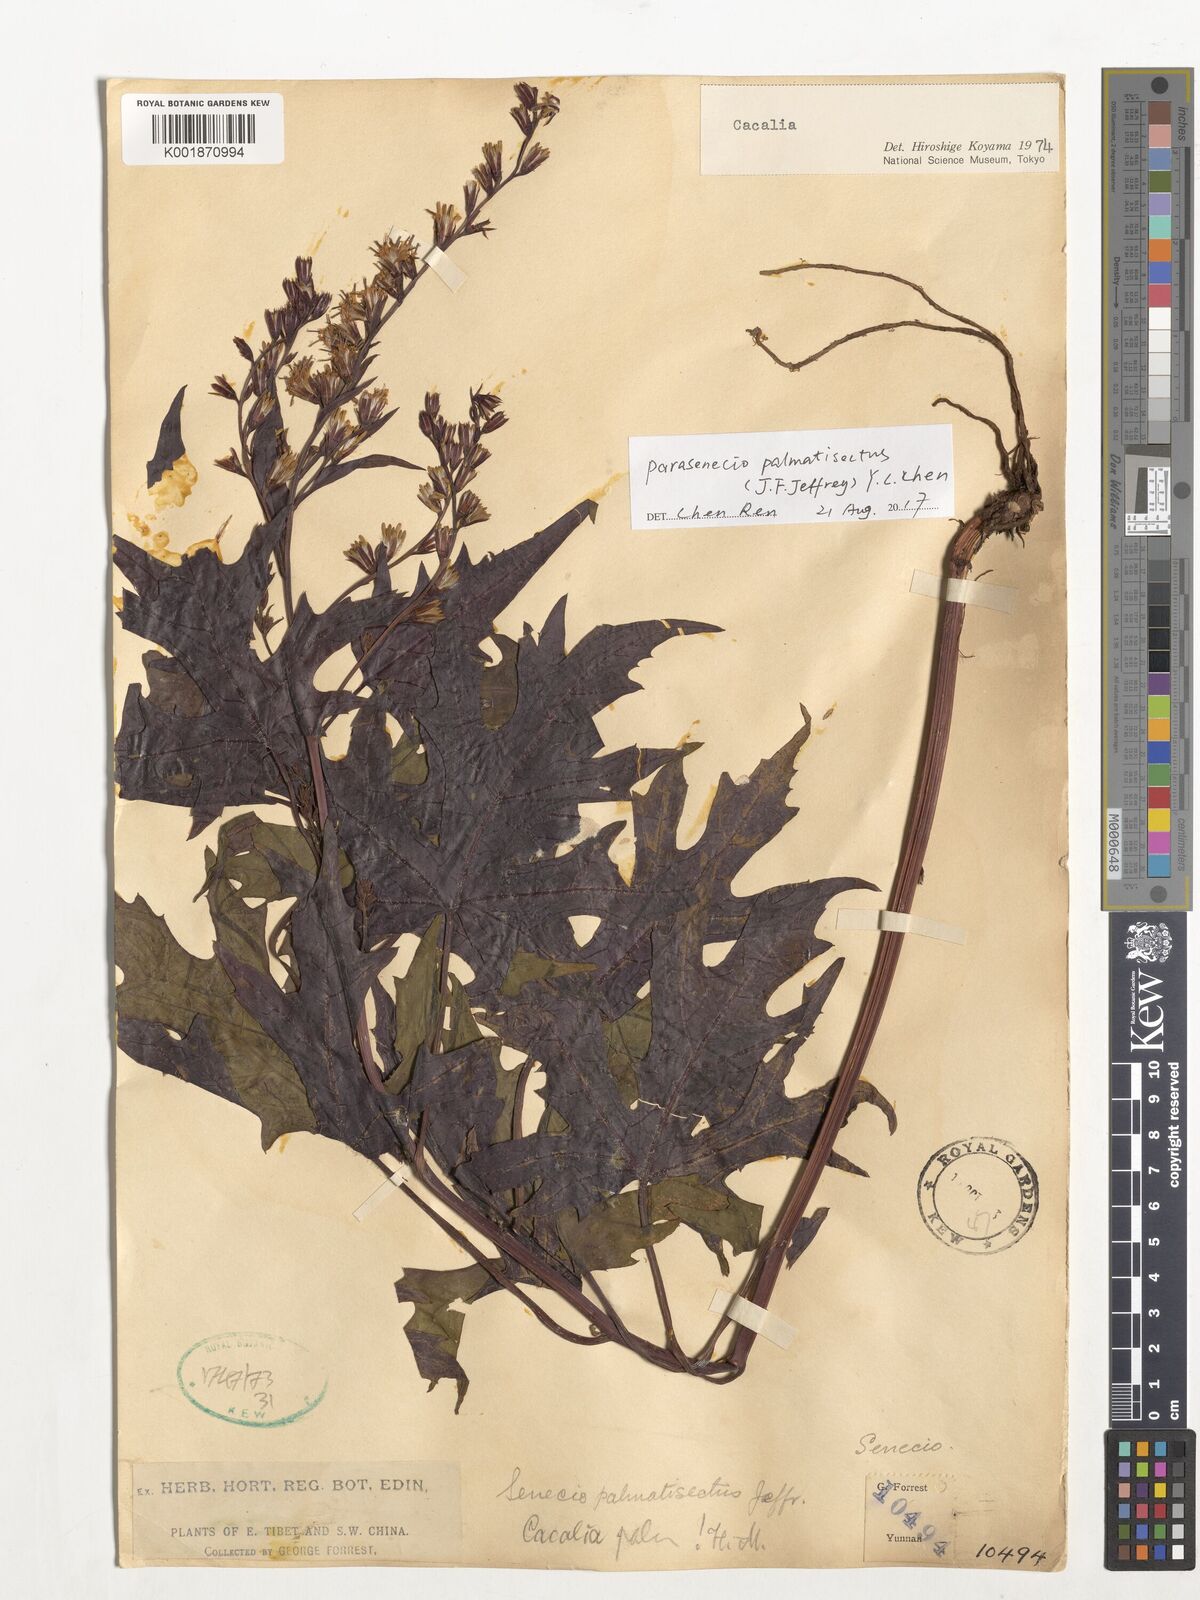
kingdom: Plantae
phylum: Tracheophyta
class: Magnoliopsida
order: Asterales
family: Asteraceae
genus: Parasenecio
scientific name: Parasenecio palmatisectus
